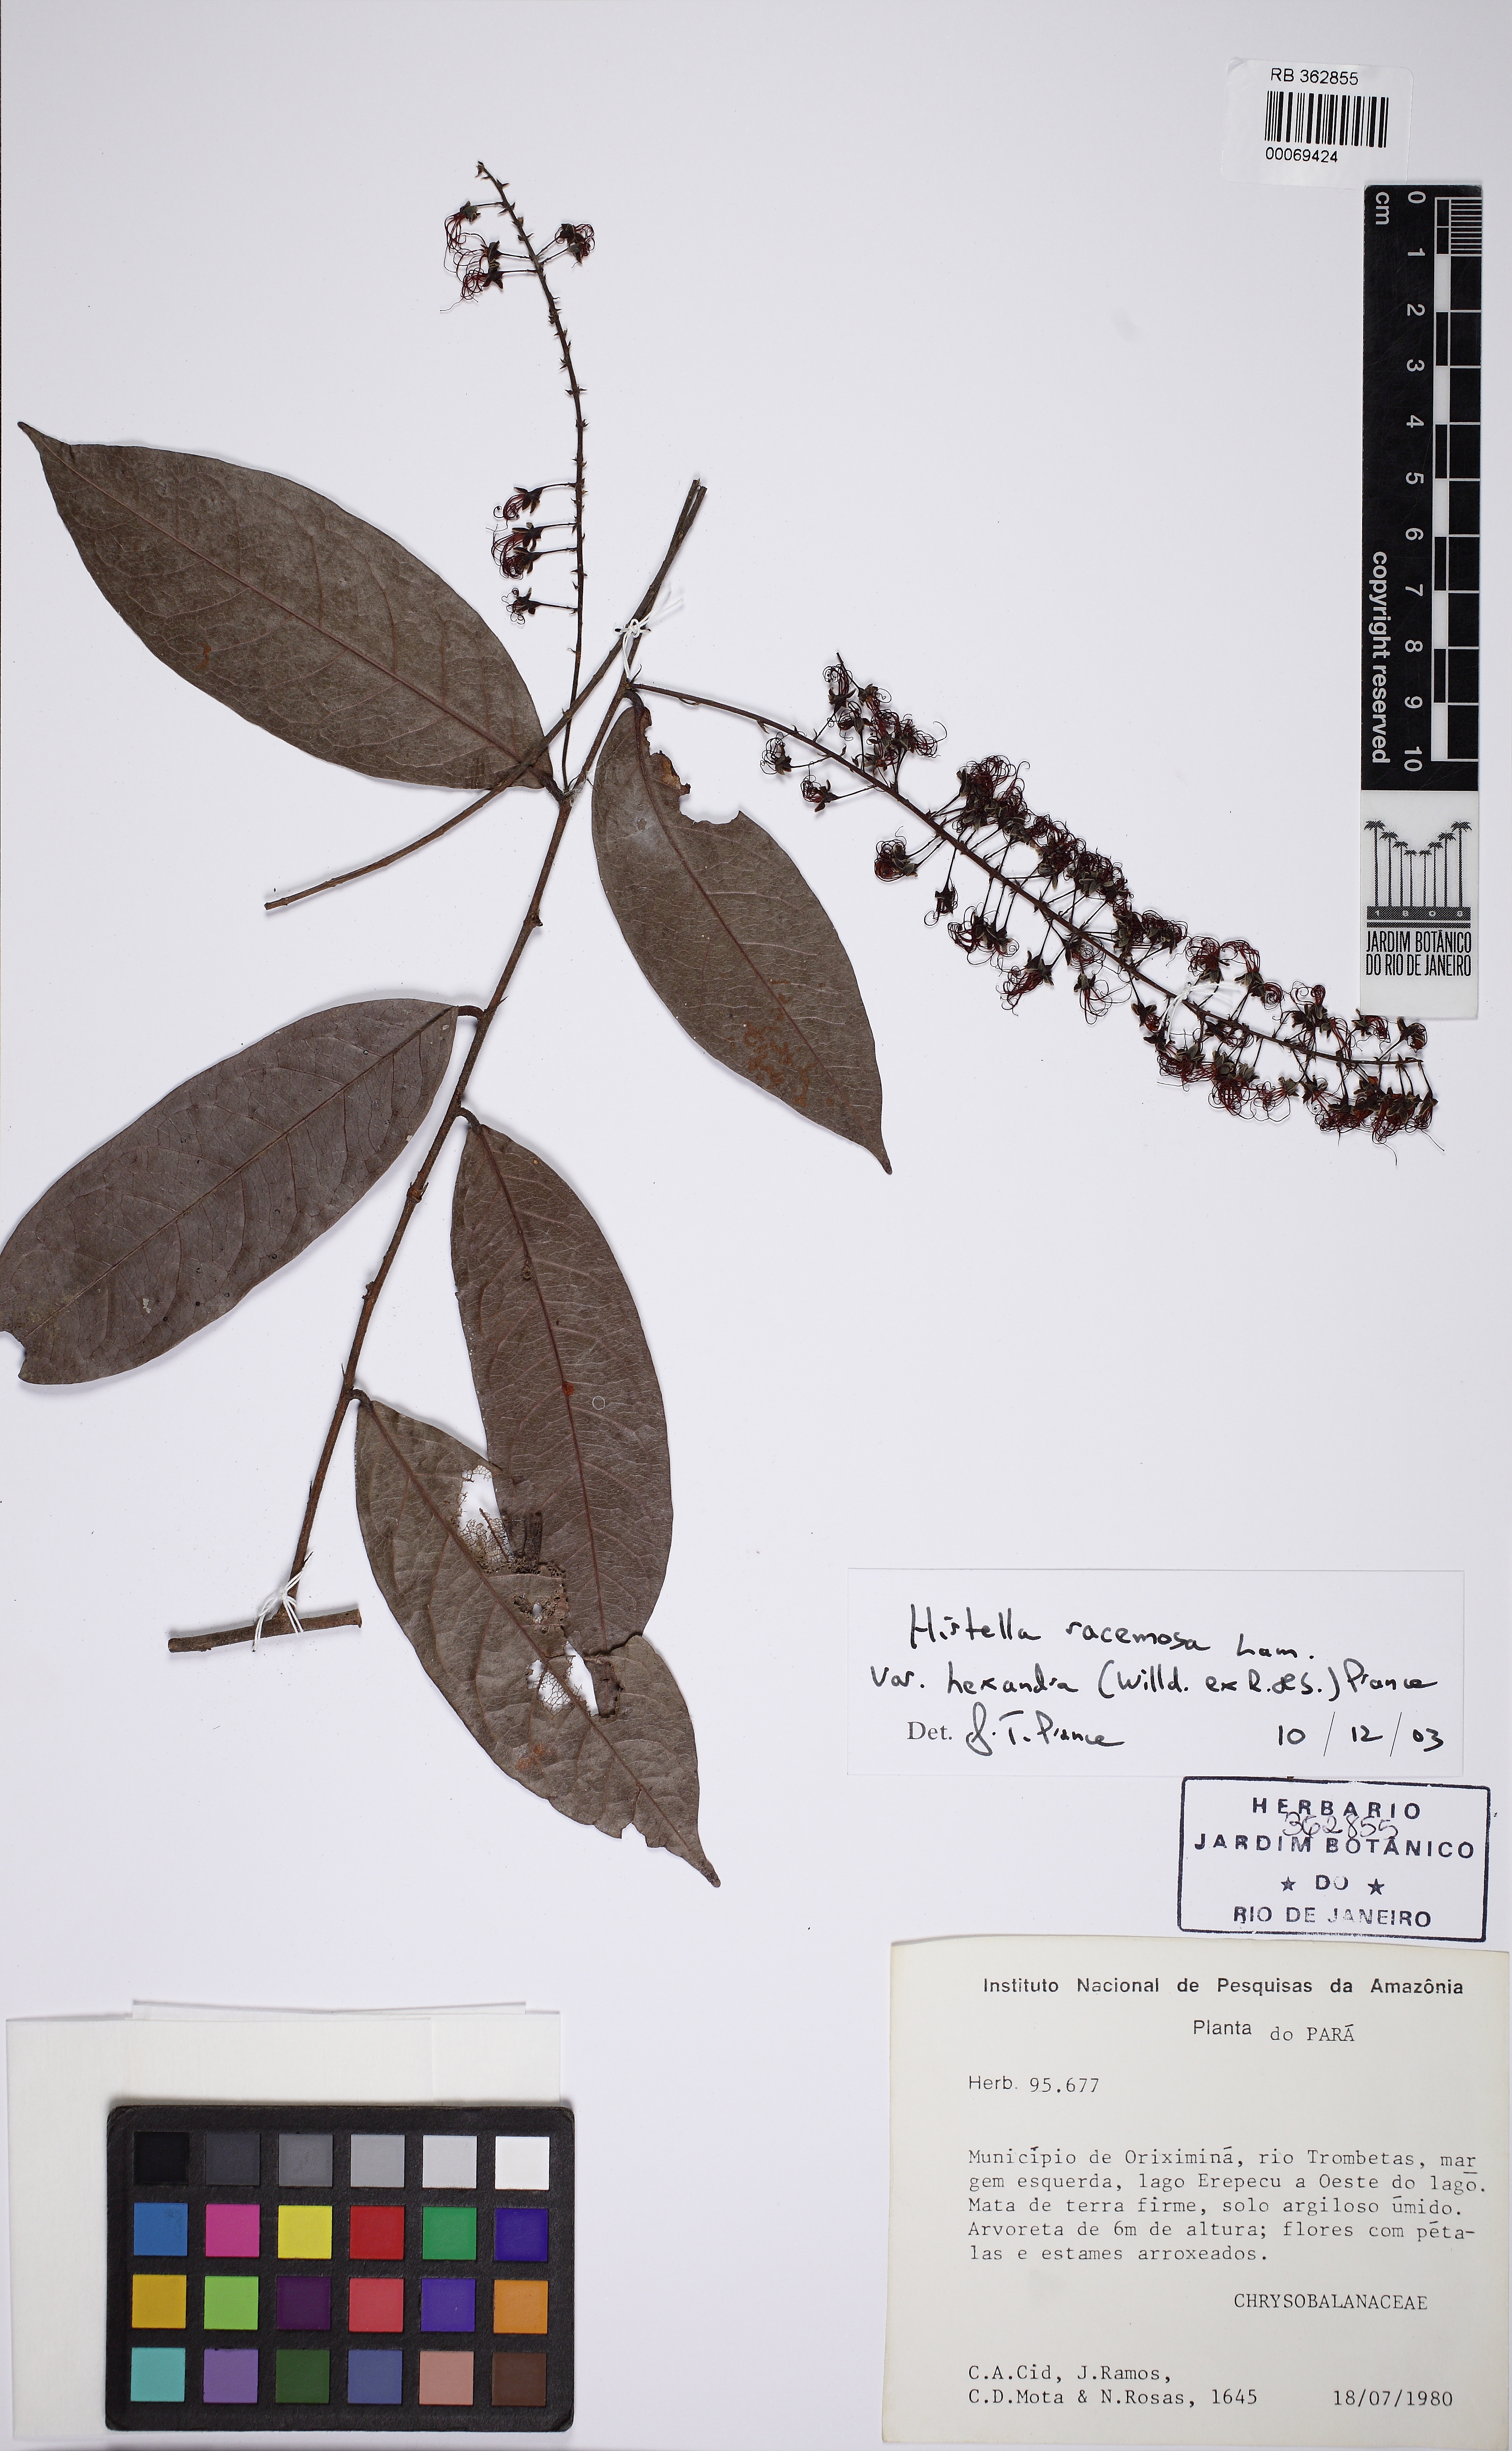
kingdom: Plantae
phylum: Tracheophyta
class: Magnoliopsida
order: Malpighiales
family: Chrysobalanaceae
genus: Hirtella
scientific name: Hirtella racemosa
